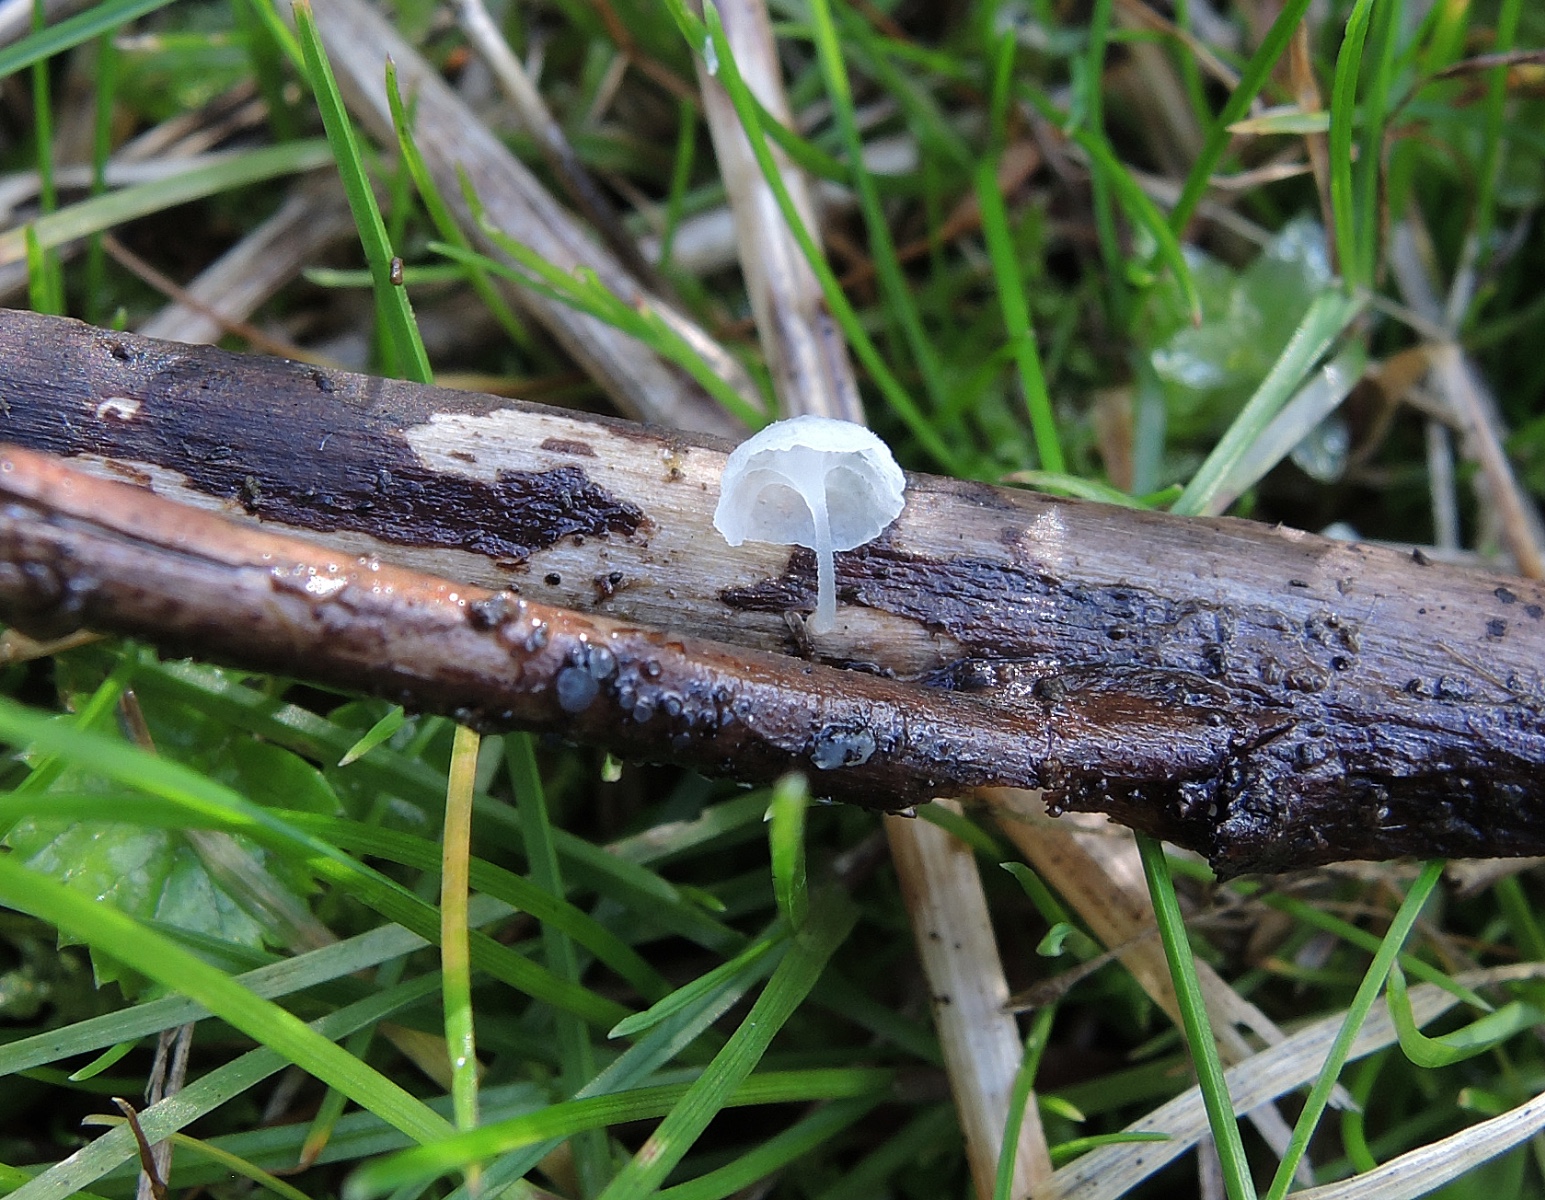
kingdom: Fungi
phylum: Basidiomycota
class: Agaricomycetes
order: Agaricales
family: Mycenaceae
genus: Hemimycena
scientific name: Hemimycena hirsuta
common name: håret huesvamp
